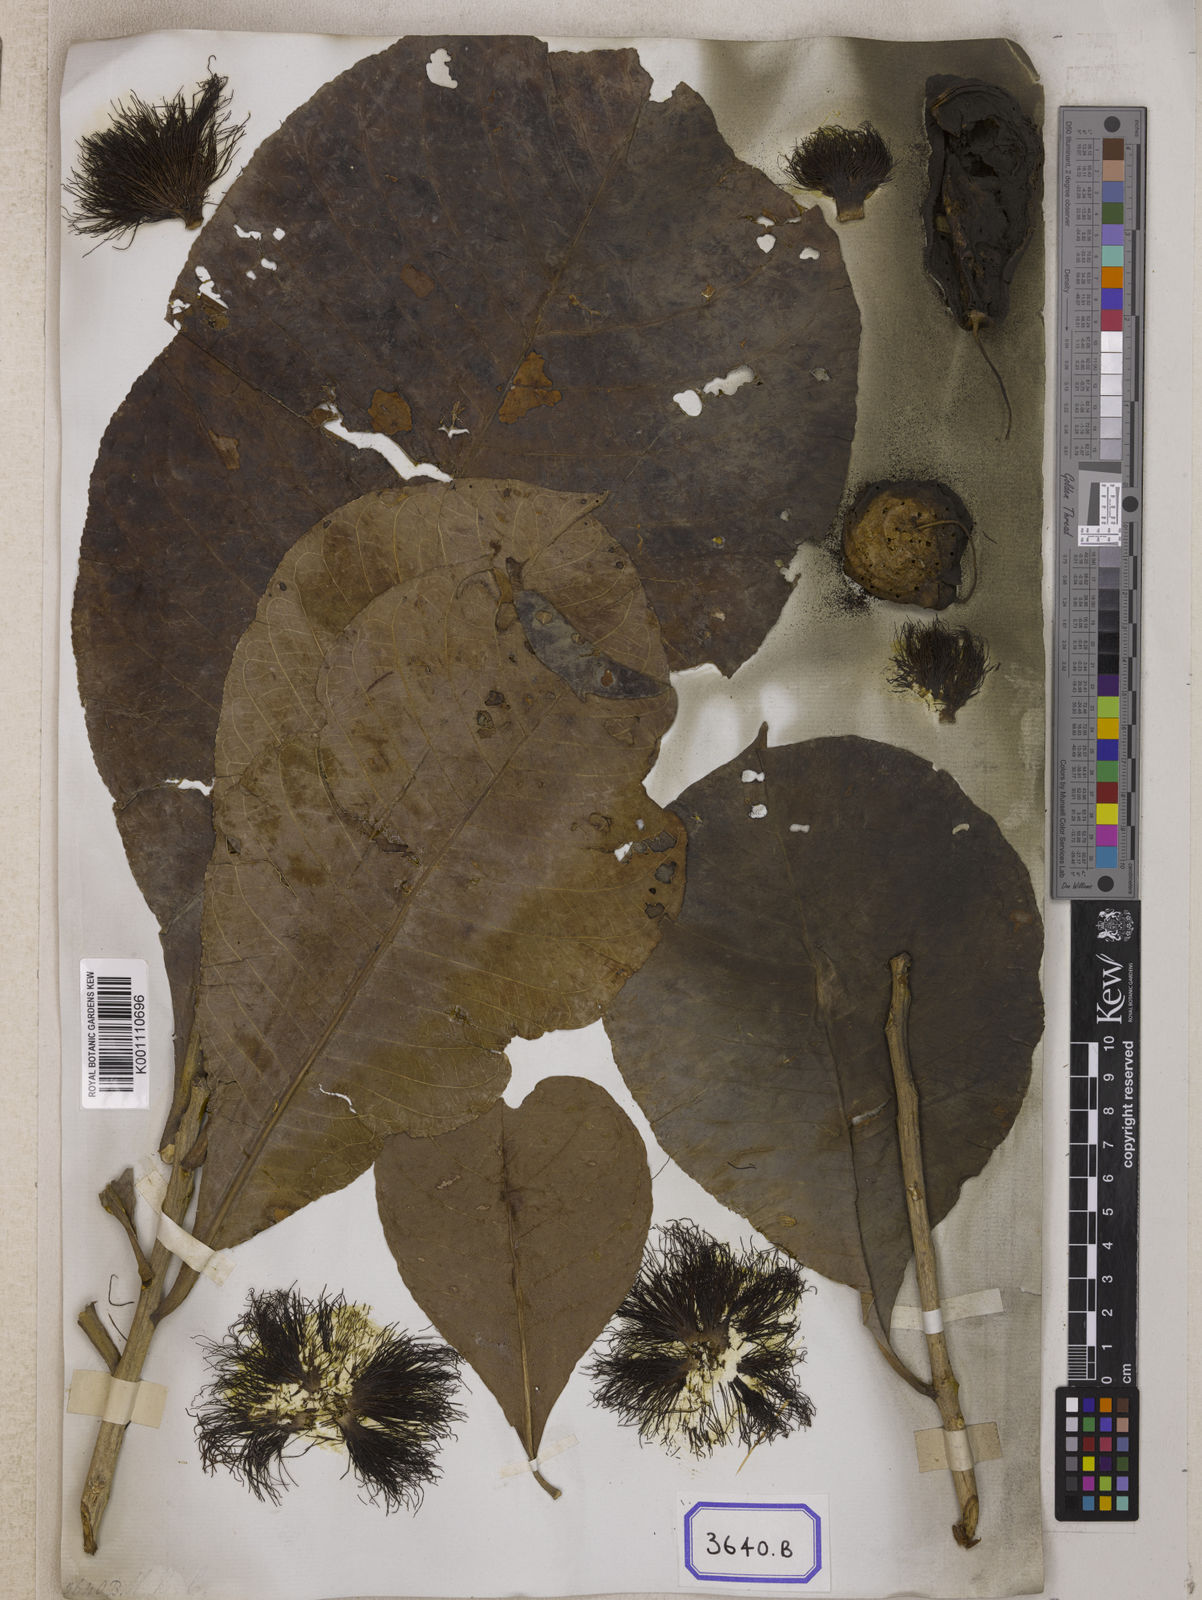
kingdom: Plantae
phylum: Tracheophyta
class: Magnoliopsida
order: Ericales
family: Lecythidaceae
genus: Careya
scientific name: Careya arborea
